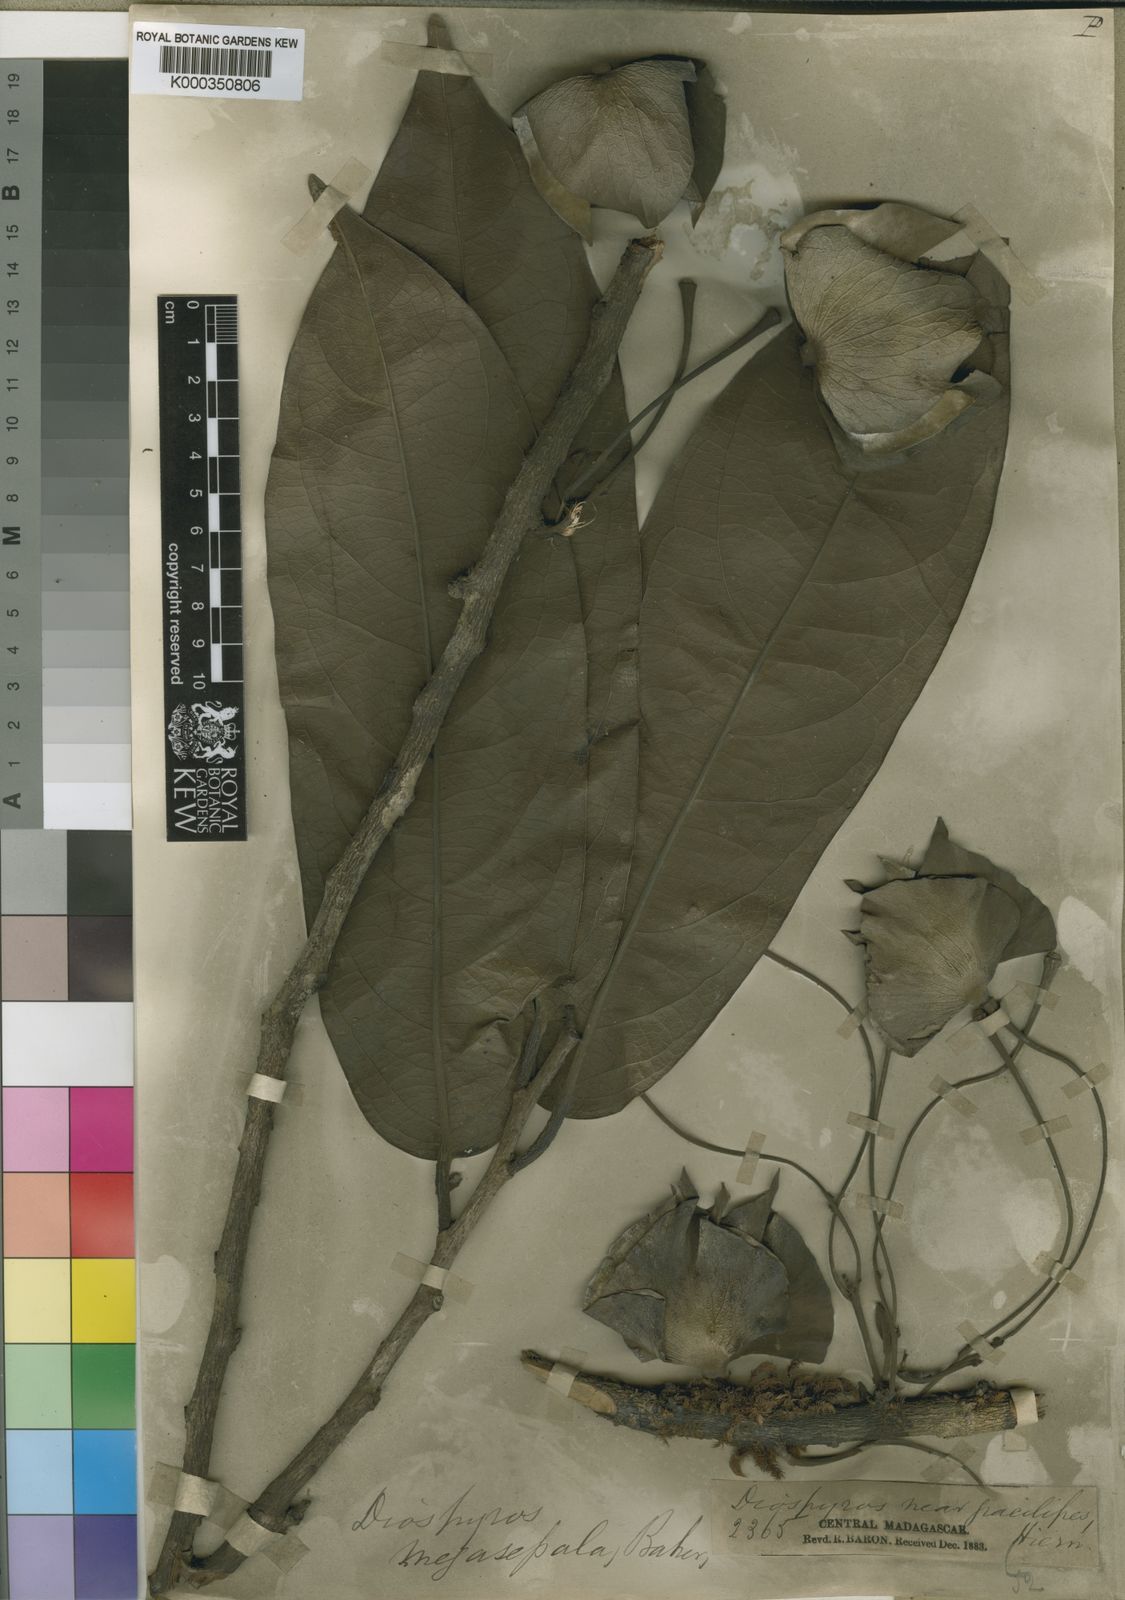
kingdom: Plantae
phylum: Tracheophyta
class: Magnoliopsida
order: Ericales
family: Ebenaceae
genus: Diospyros
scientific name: Diospyros leucocalyx
